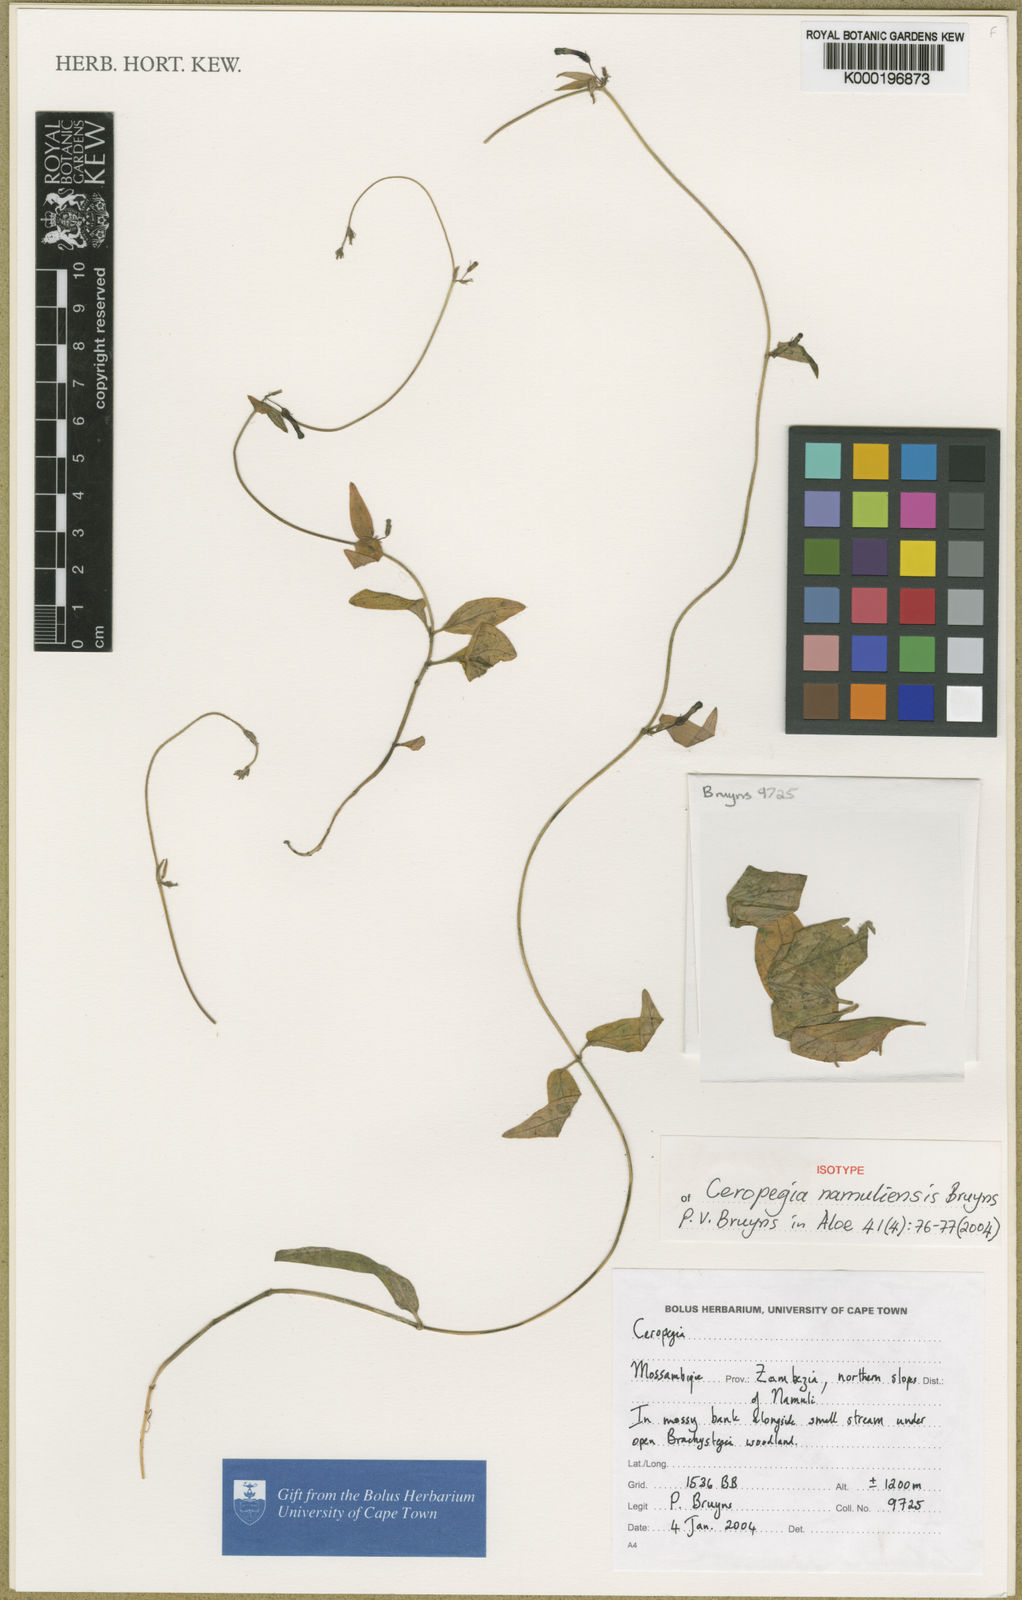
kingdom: Plantae
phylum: Tracheophyta
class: Magnoliopsida
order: Gentianales
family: Apocynaceae
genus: Ceropegia
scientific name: Ceropegia namuliensis
